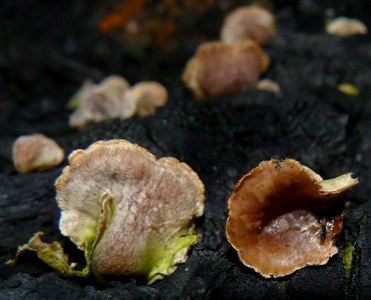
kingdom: Fungi
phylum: Basidiomycota
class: Agaricomycetes
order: Agaricales
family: Schizophyllaceae
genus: Schizophyllum
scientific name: Schizophyllum amplum
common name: poppel-hængeøre
